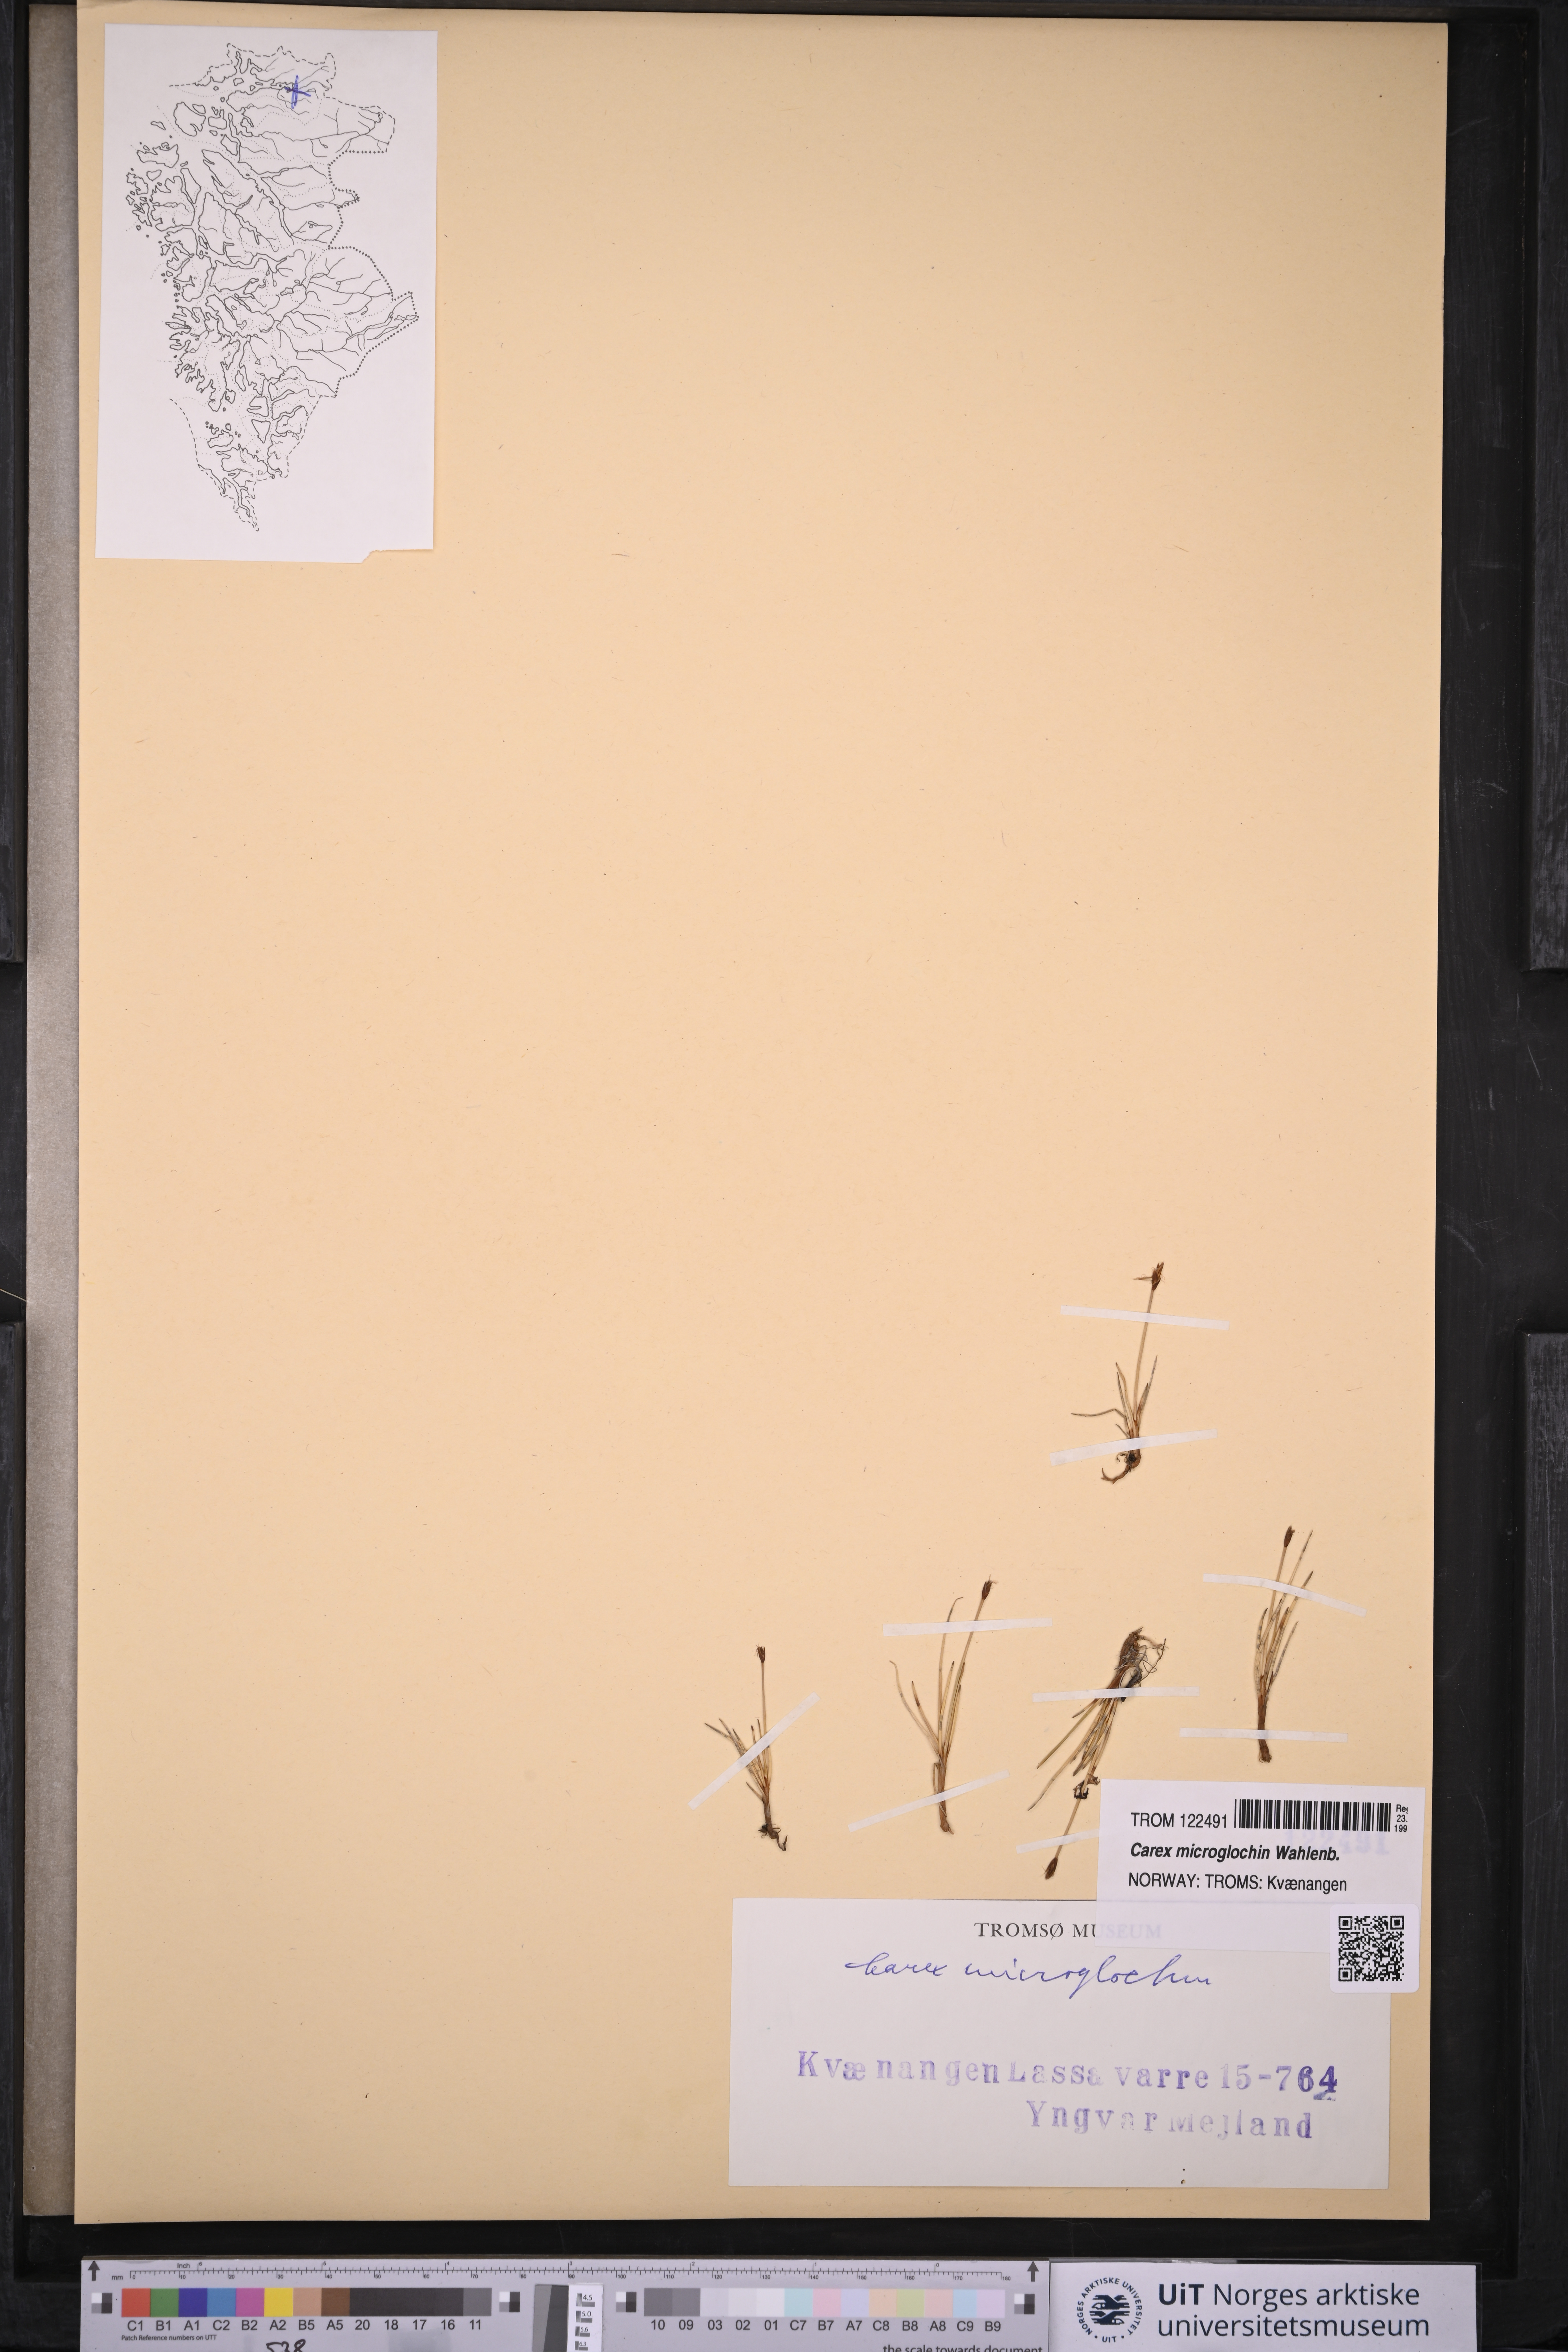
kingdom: Plantae
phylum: Tracheophyta
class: Liliopsida
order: Poales
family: Cyperaceae
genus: Carex
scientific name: Carex microglochin
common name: Bristle sedge
